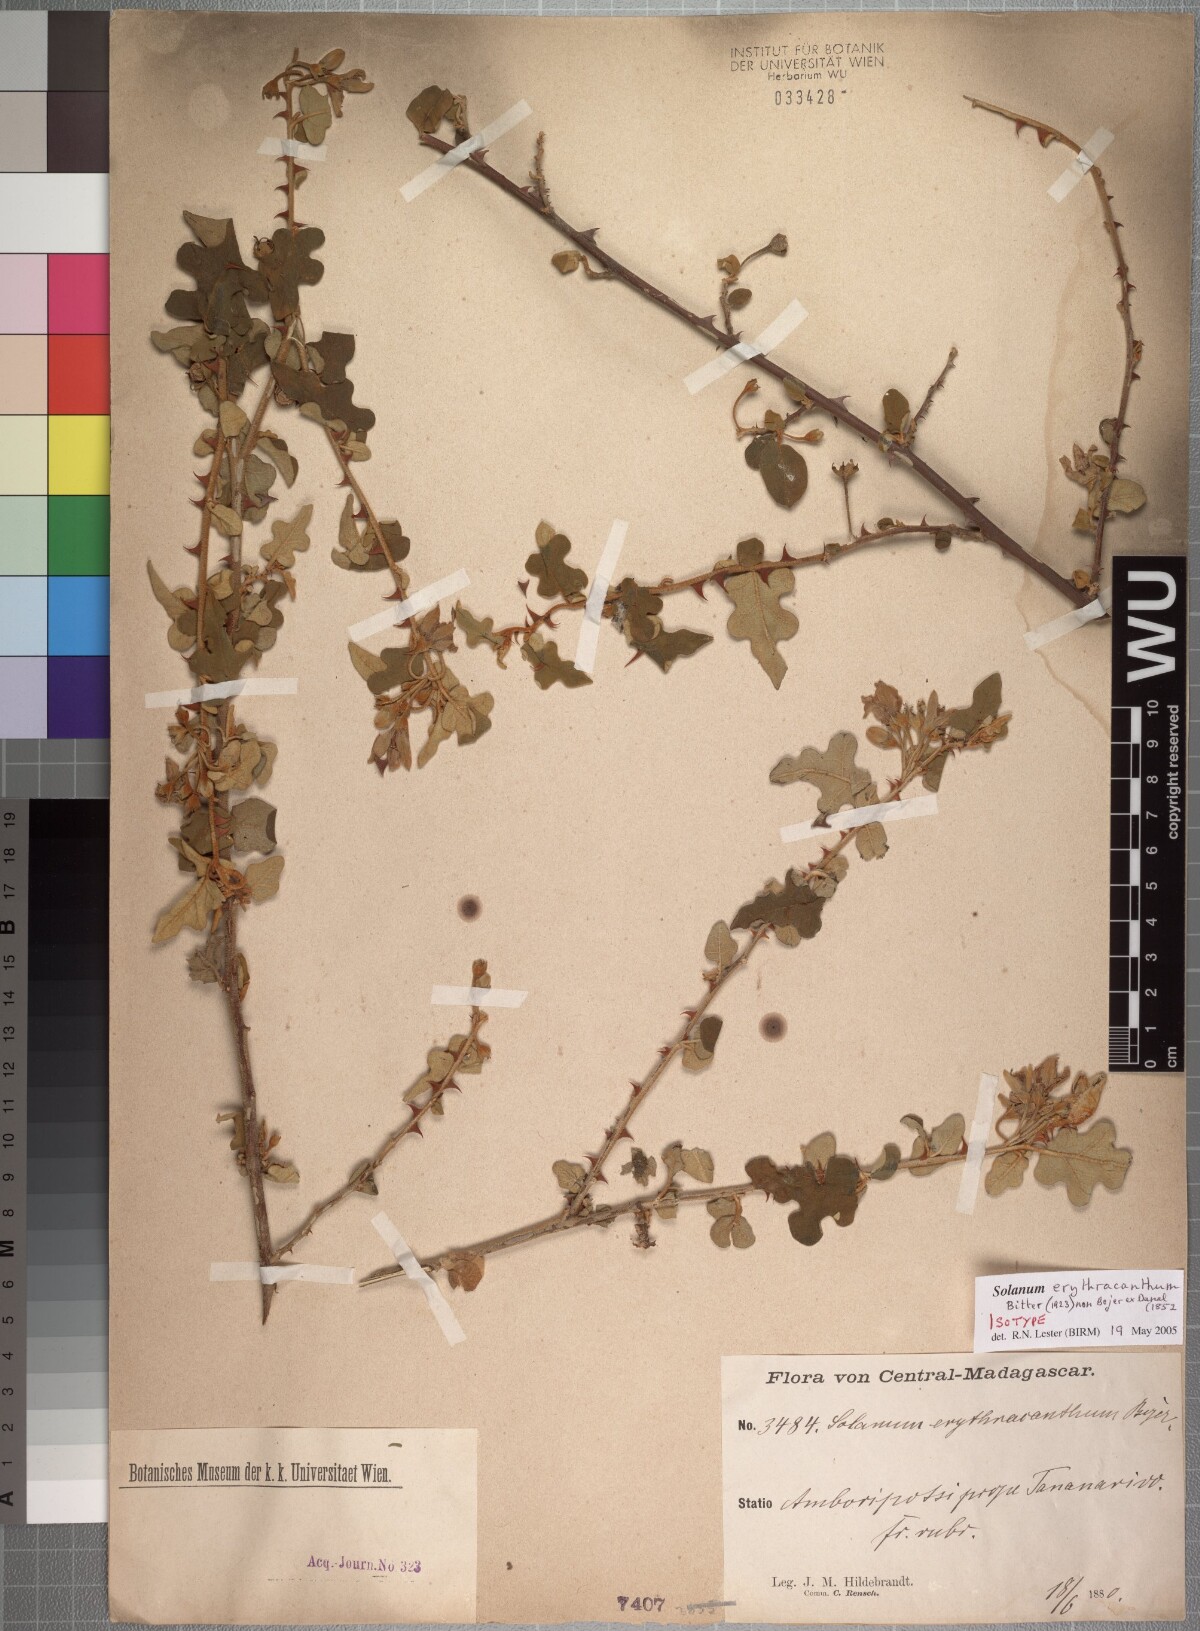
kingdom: Plantae
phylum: Tracheophyta
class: Magnoliopsida
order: Solanales
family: Solanaceae
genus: Solanum
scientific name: Solanum erythracanthum
